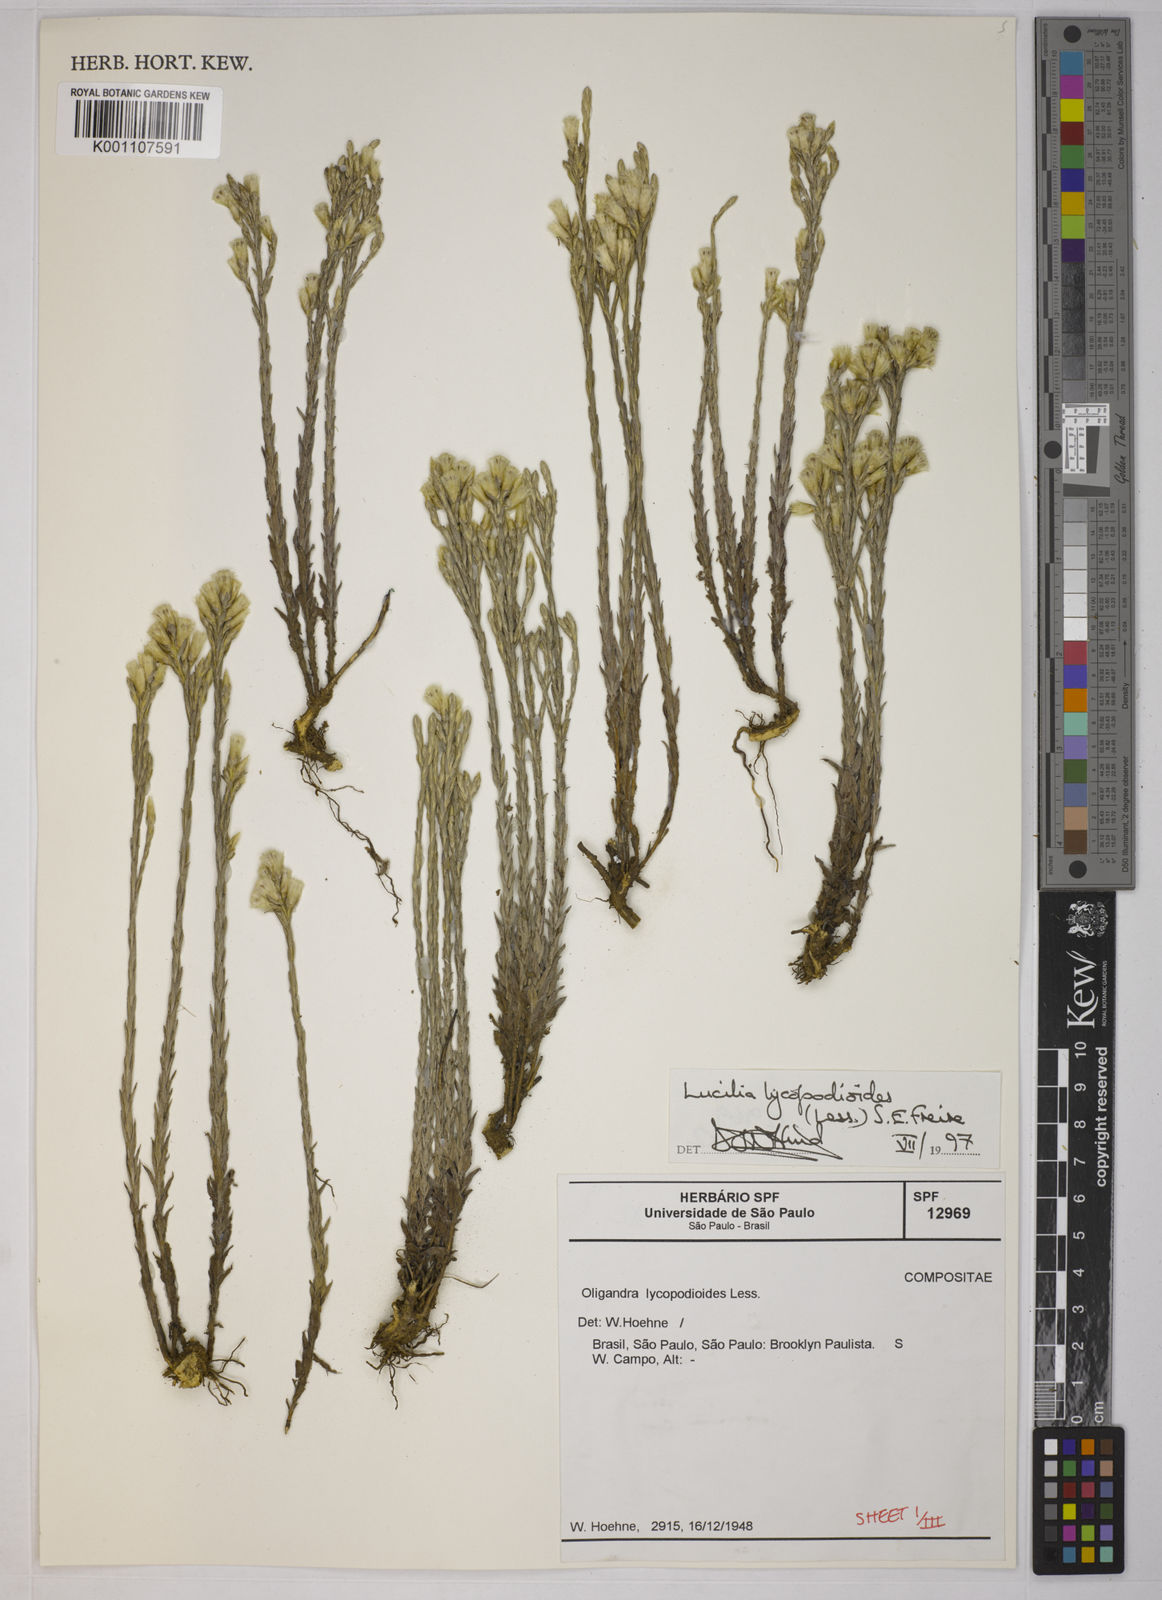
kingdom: Plantae
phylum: Tracheophyta
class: Magnoliopsida
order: Asterales
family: Asteraceae
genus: Lucilia
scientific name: Lucilia lycopodioides
